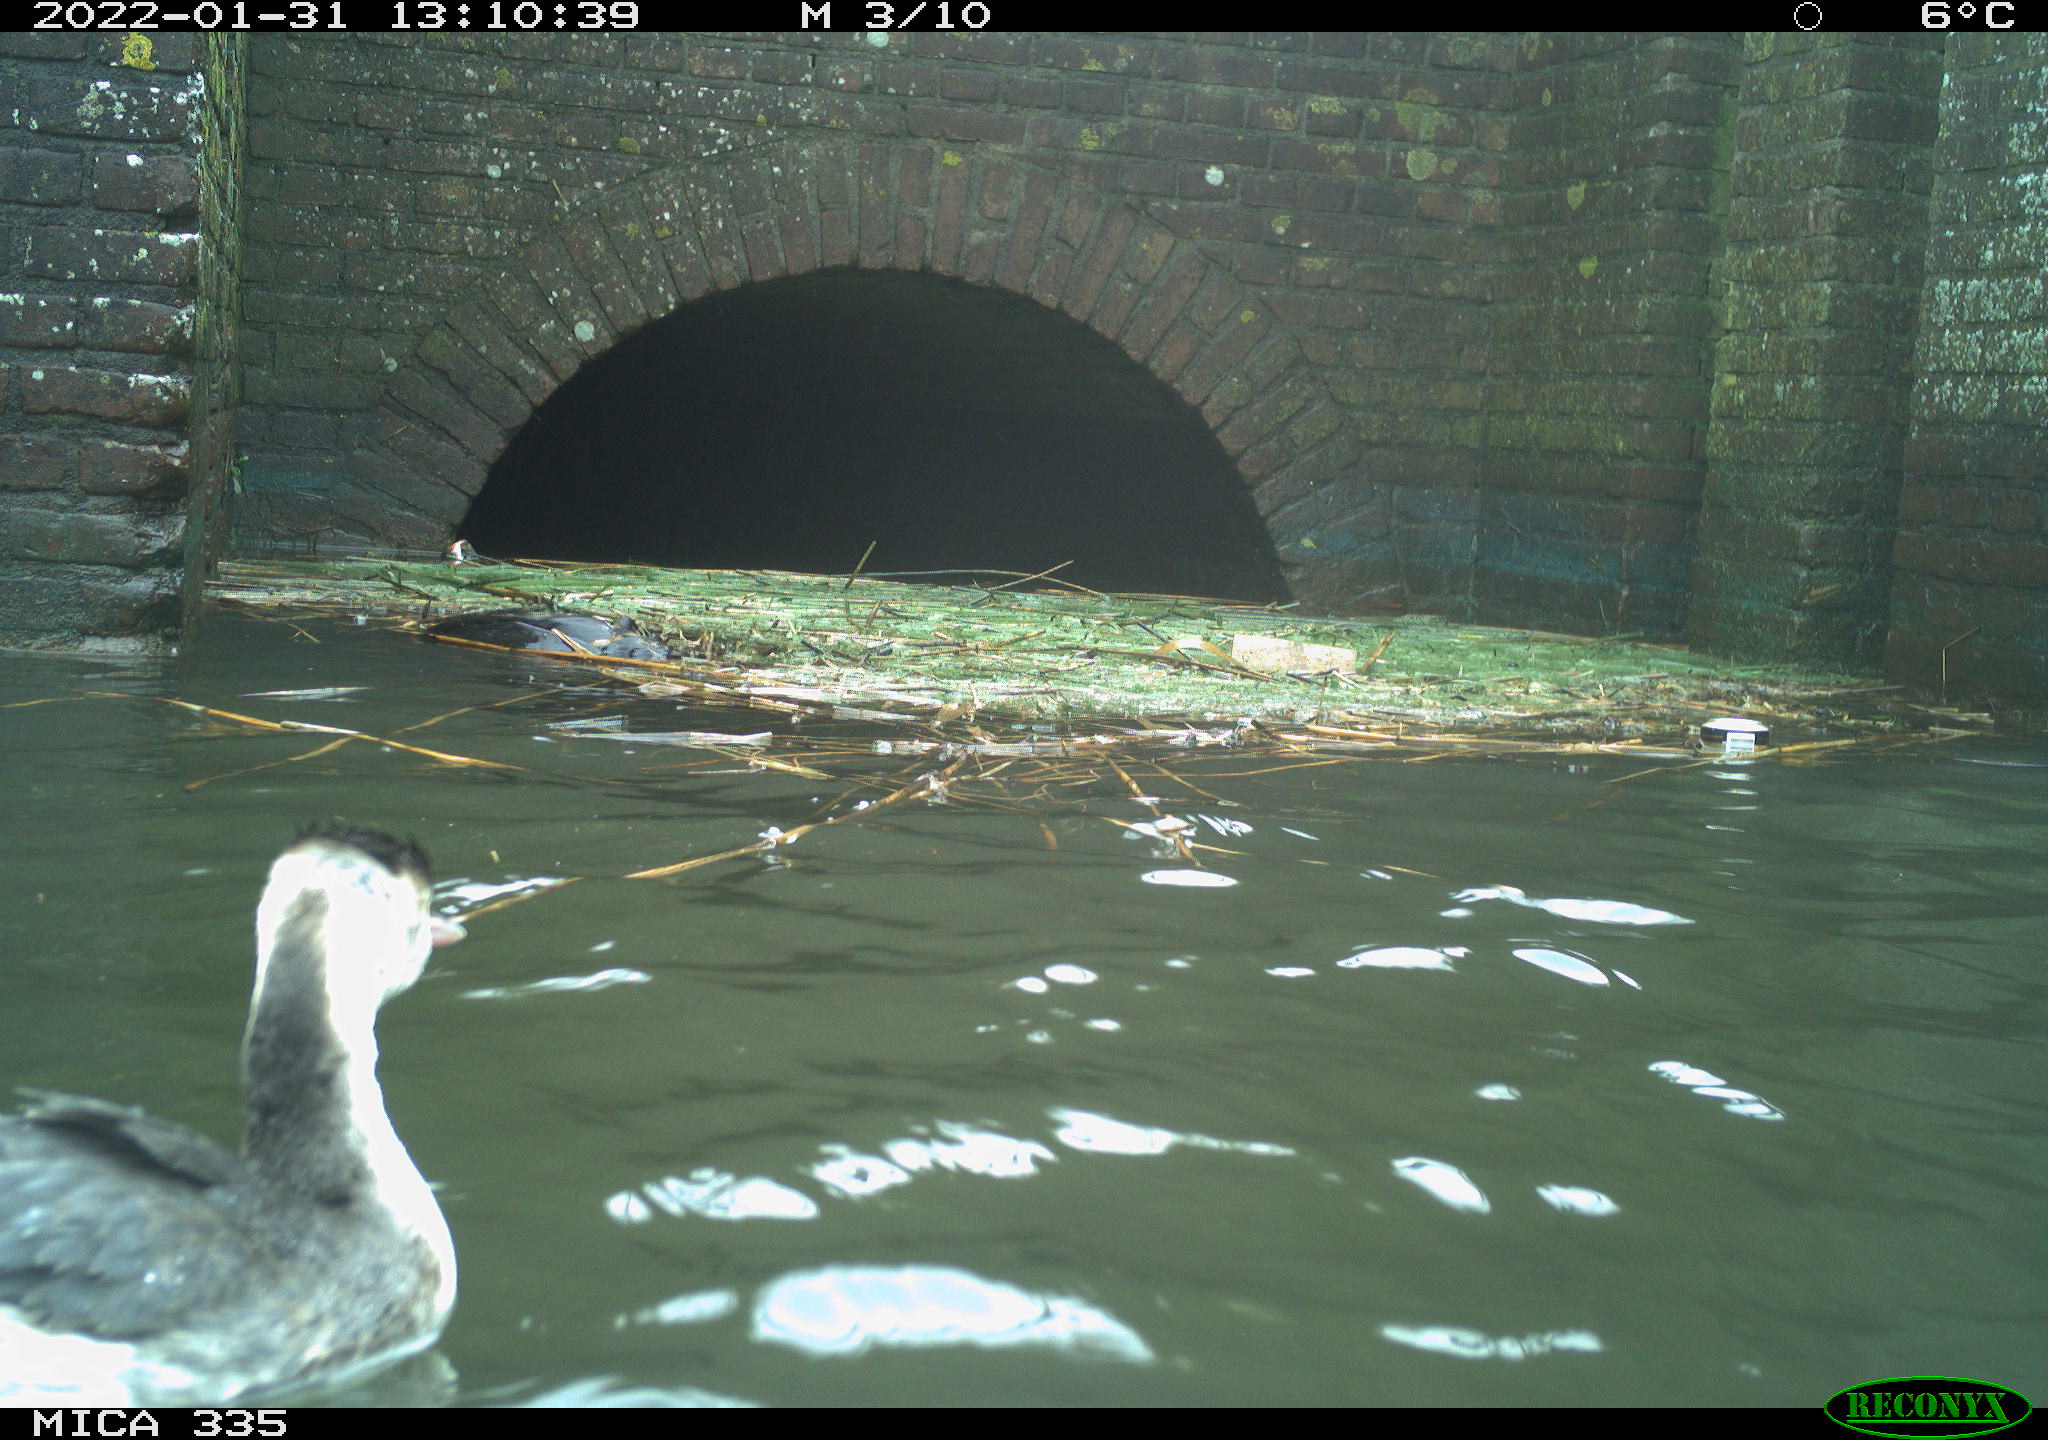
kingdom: Animalia
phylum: Chordata
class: Aves
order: Podicipediformes
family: Podicipedidae
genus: Podiceps
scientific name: Podiceps cristatus
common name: Great crested grebe
